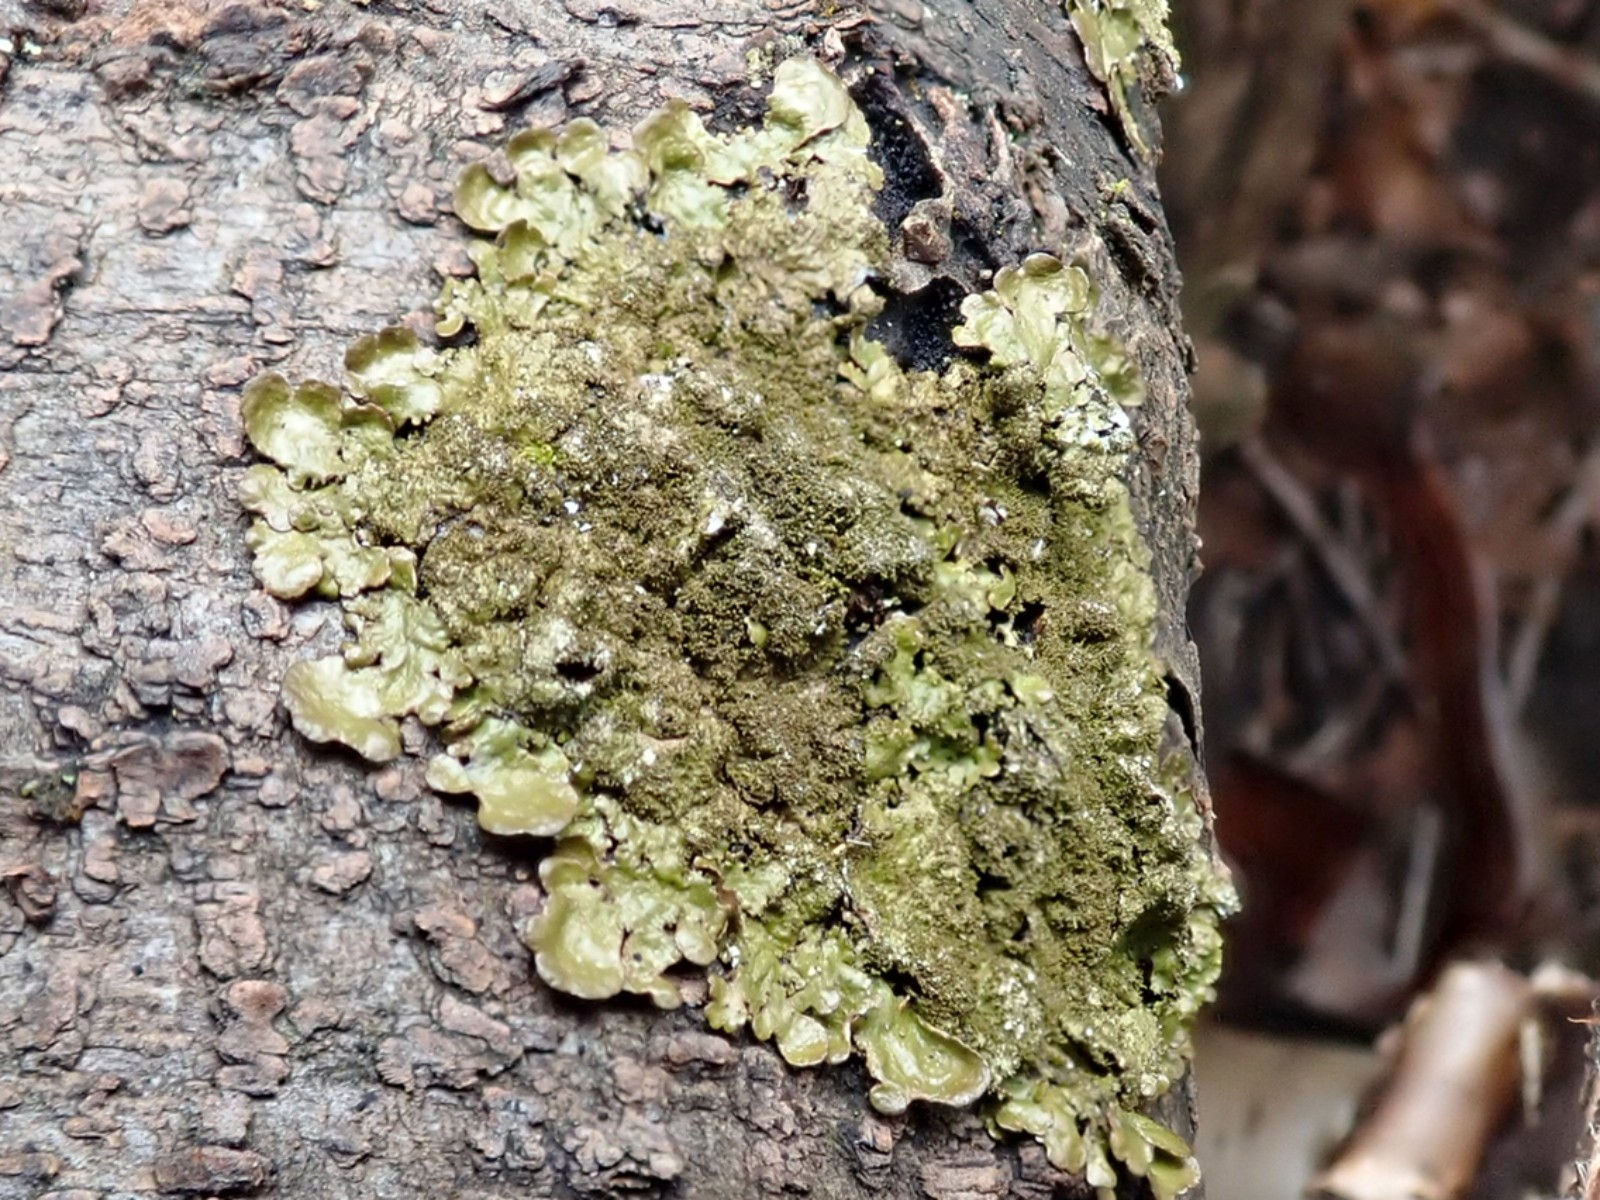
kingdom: Fungi
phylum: Ascomycota
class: Lecanoromycetes
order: Lecanorales
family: Parmeliaceae
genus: Melanelixia
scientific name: Melanelixia glabratula
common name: glinsende skållav
